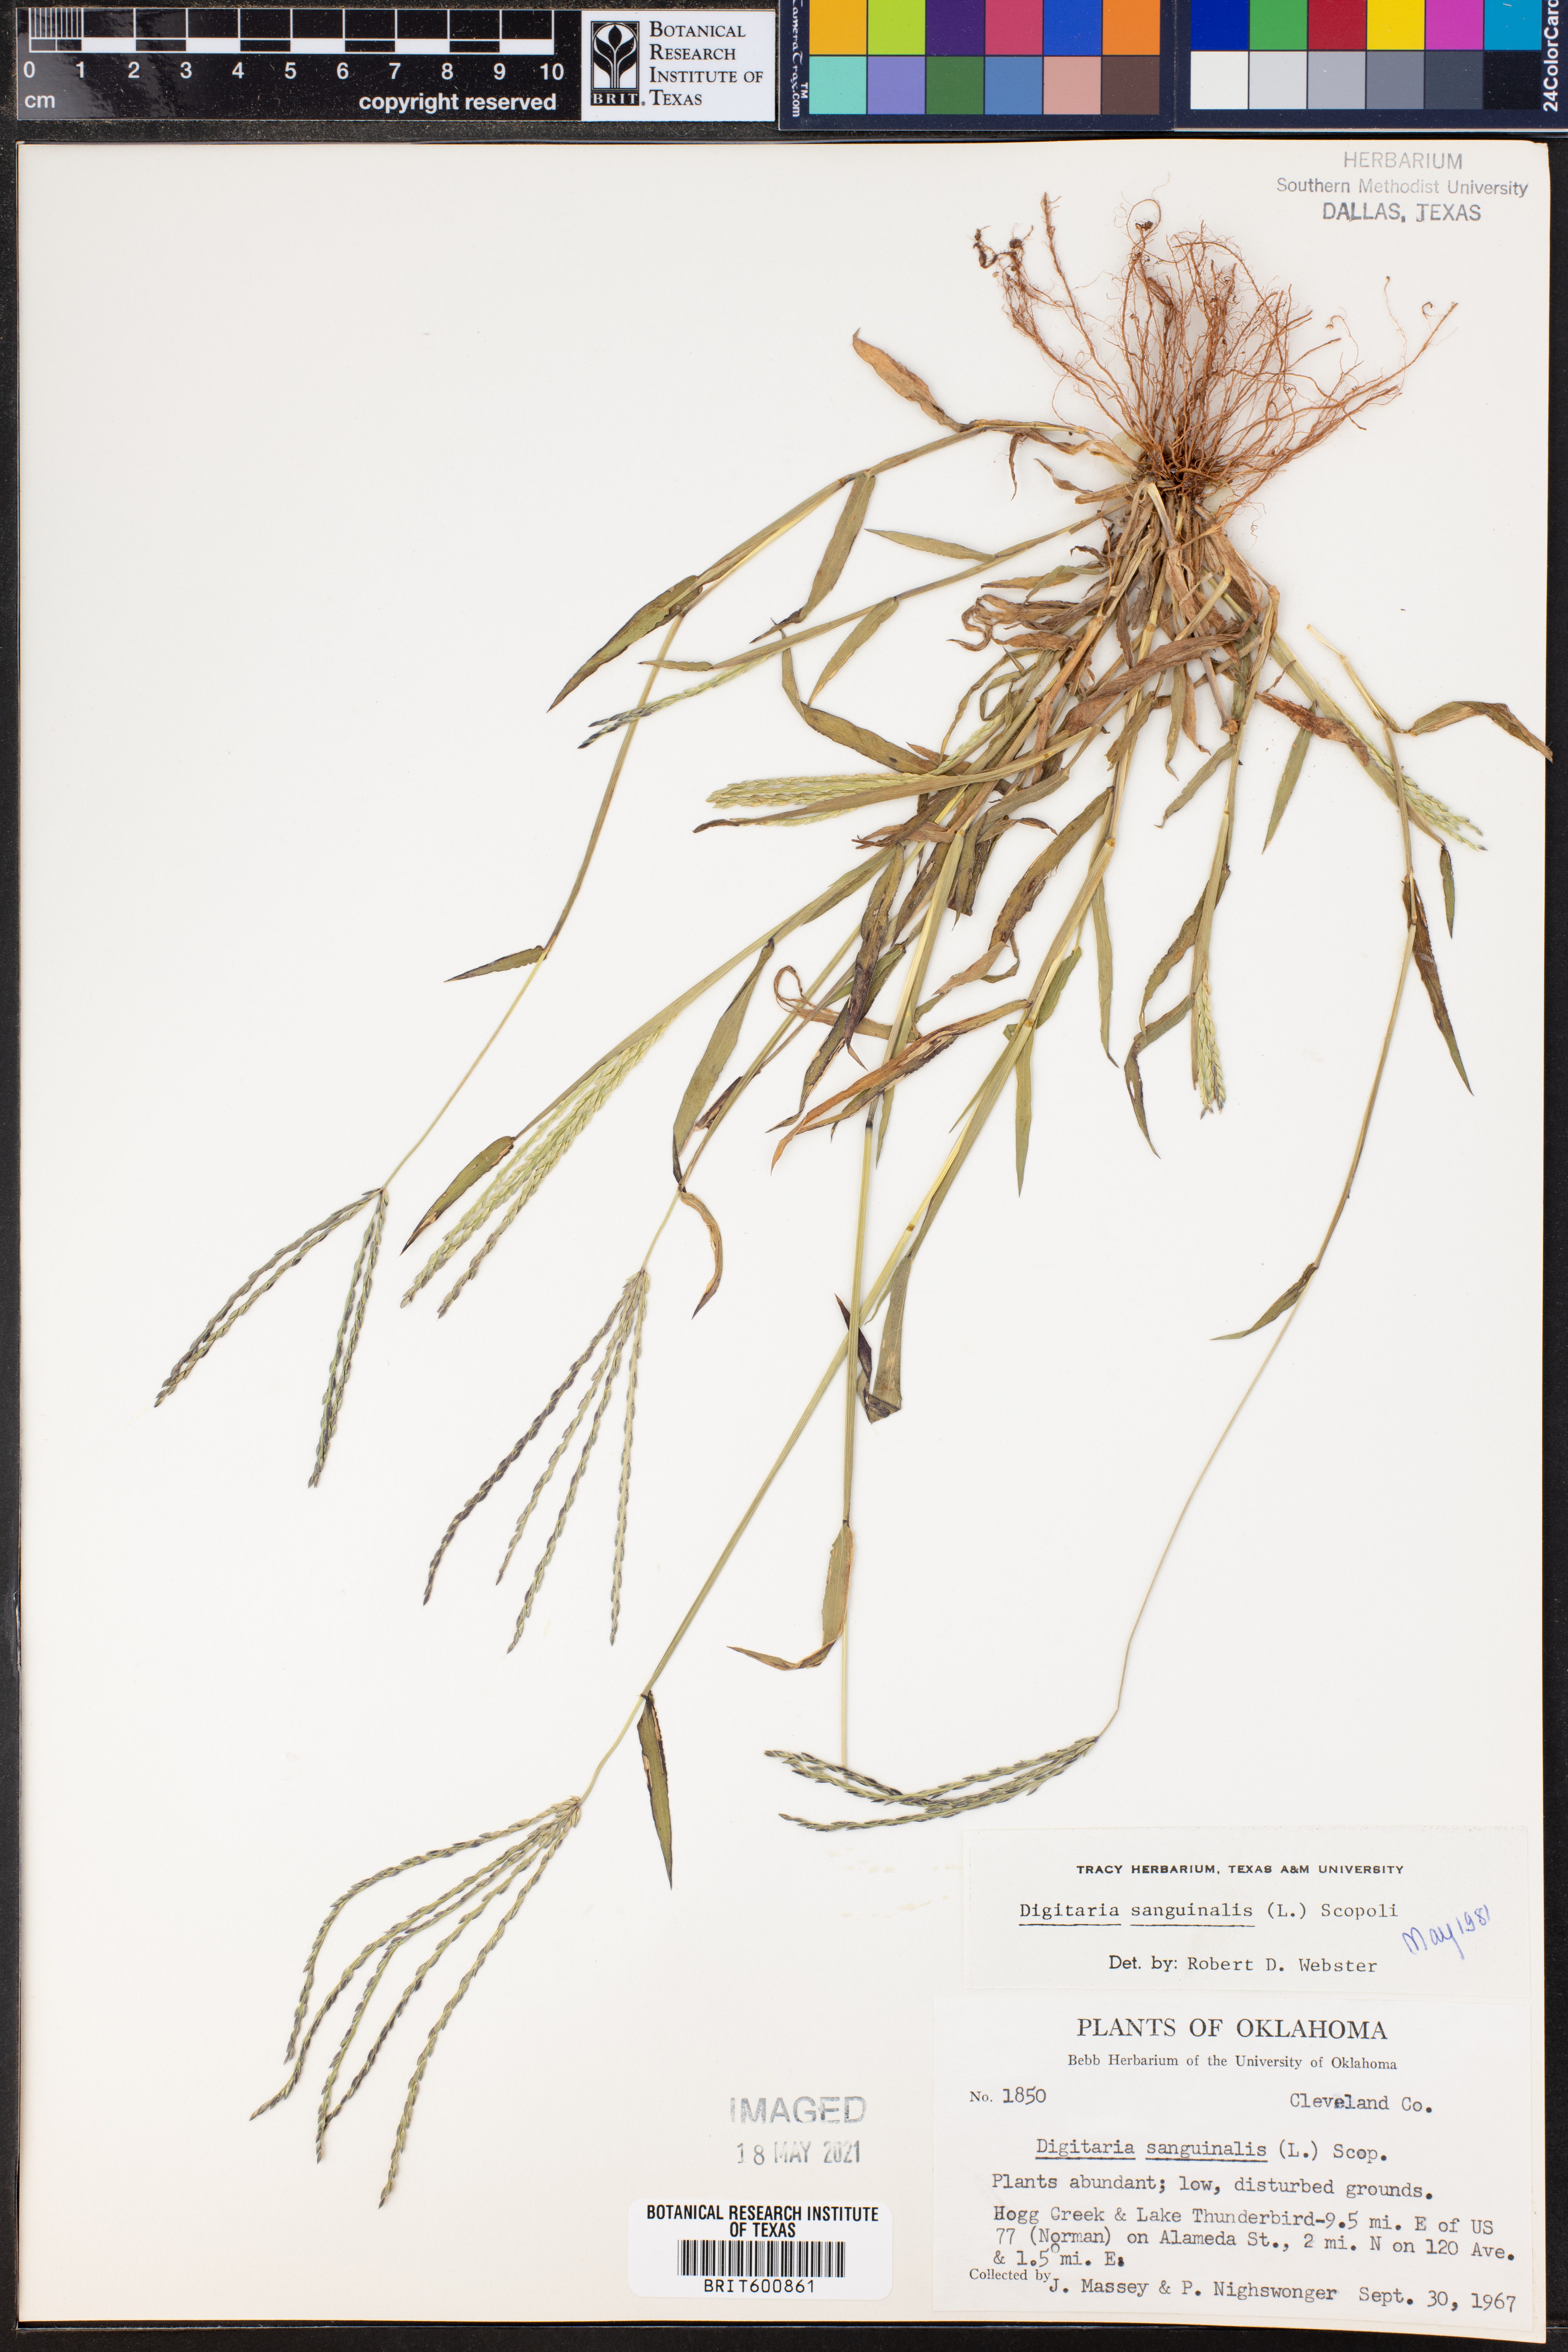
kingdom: Plantae
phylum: Tracheophyta
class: Liliopsida
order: Poales
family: Poaceae
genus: Digitaria
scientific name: Digitaria sanguinalis
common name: Hairy crabgrass
